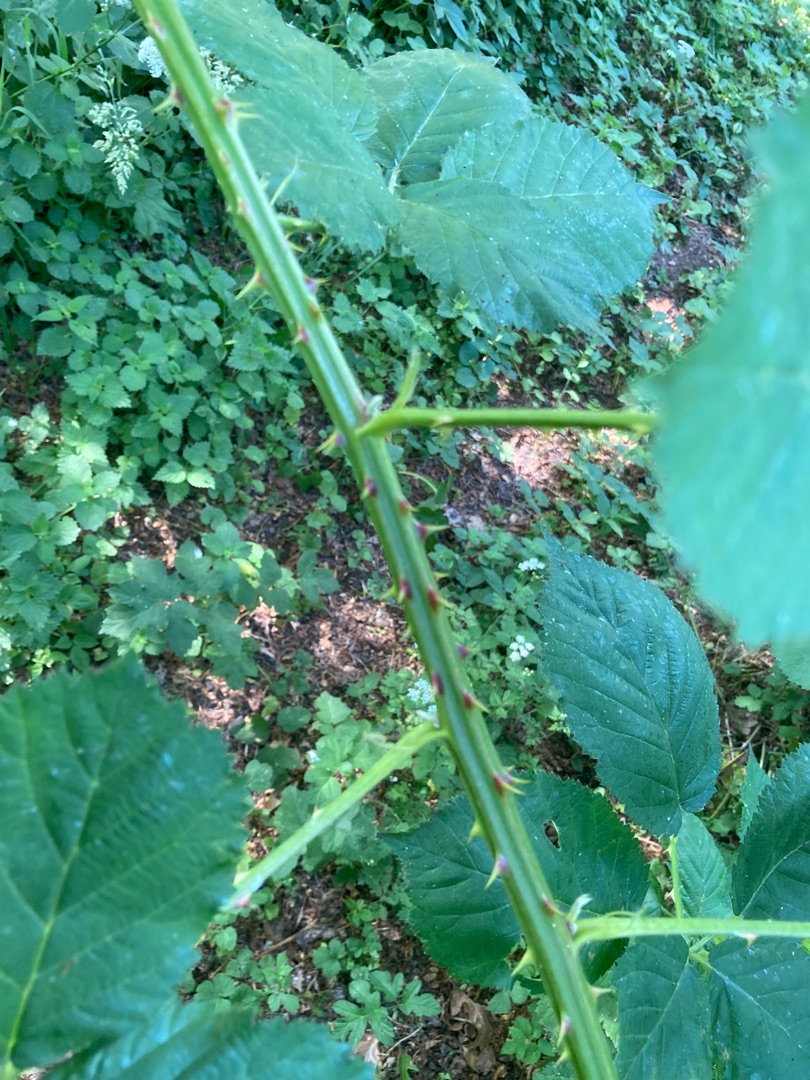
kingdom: Plantae
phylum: Tracheophyta
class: Magnoliopsida
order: Rosales
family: Rosaceae
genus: Rubus
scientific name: Rubus armeniacus
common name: Armensk brombær
